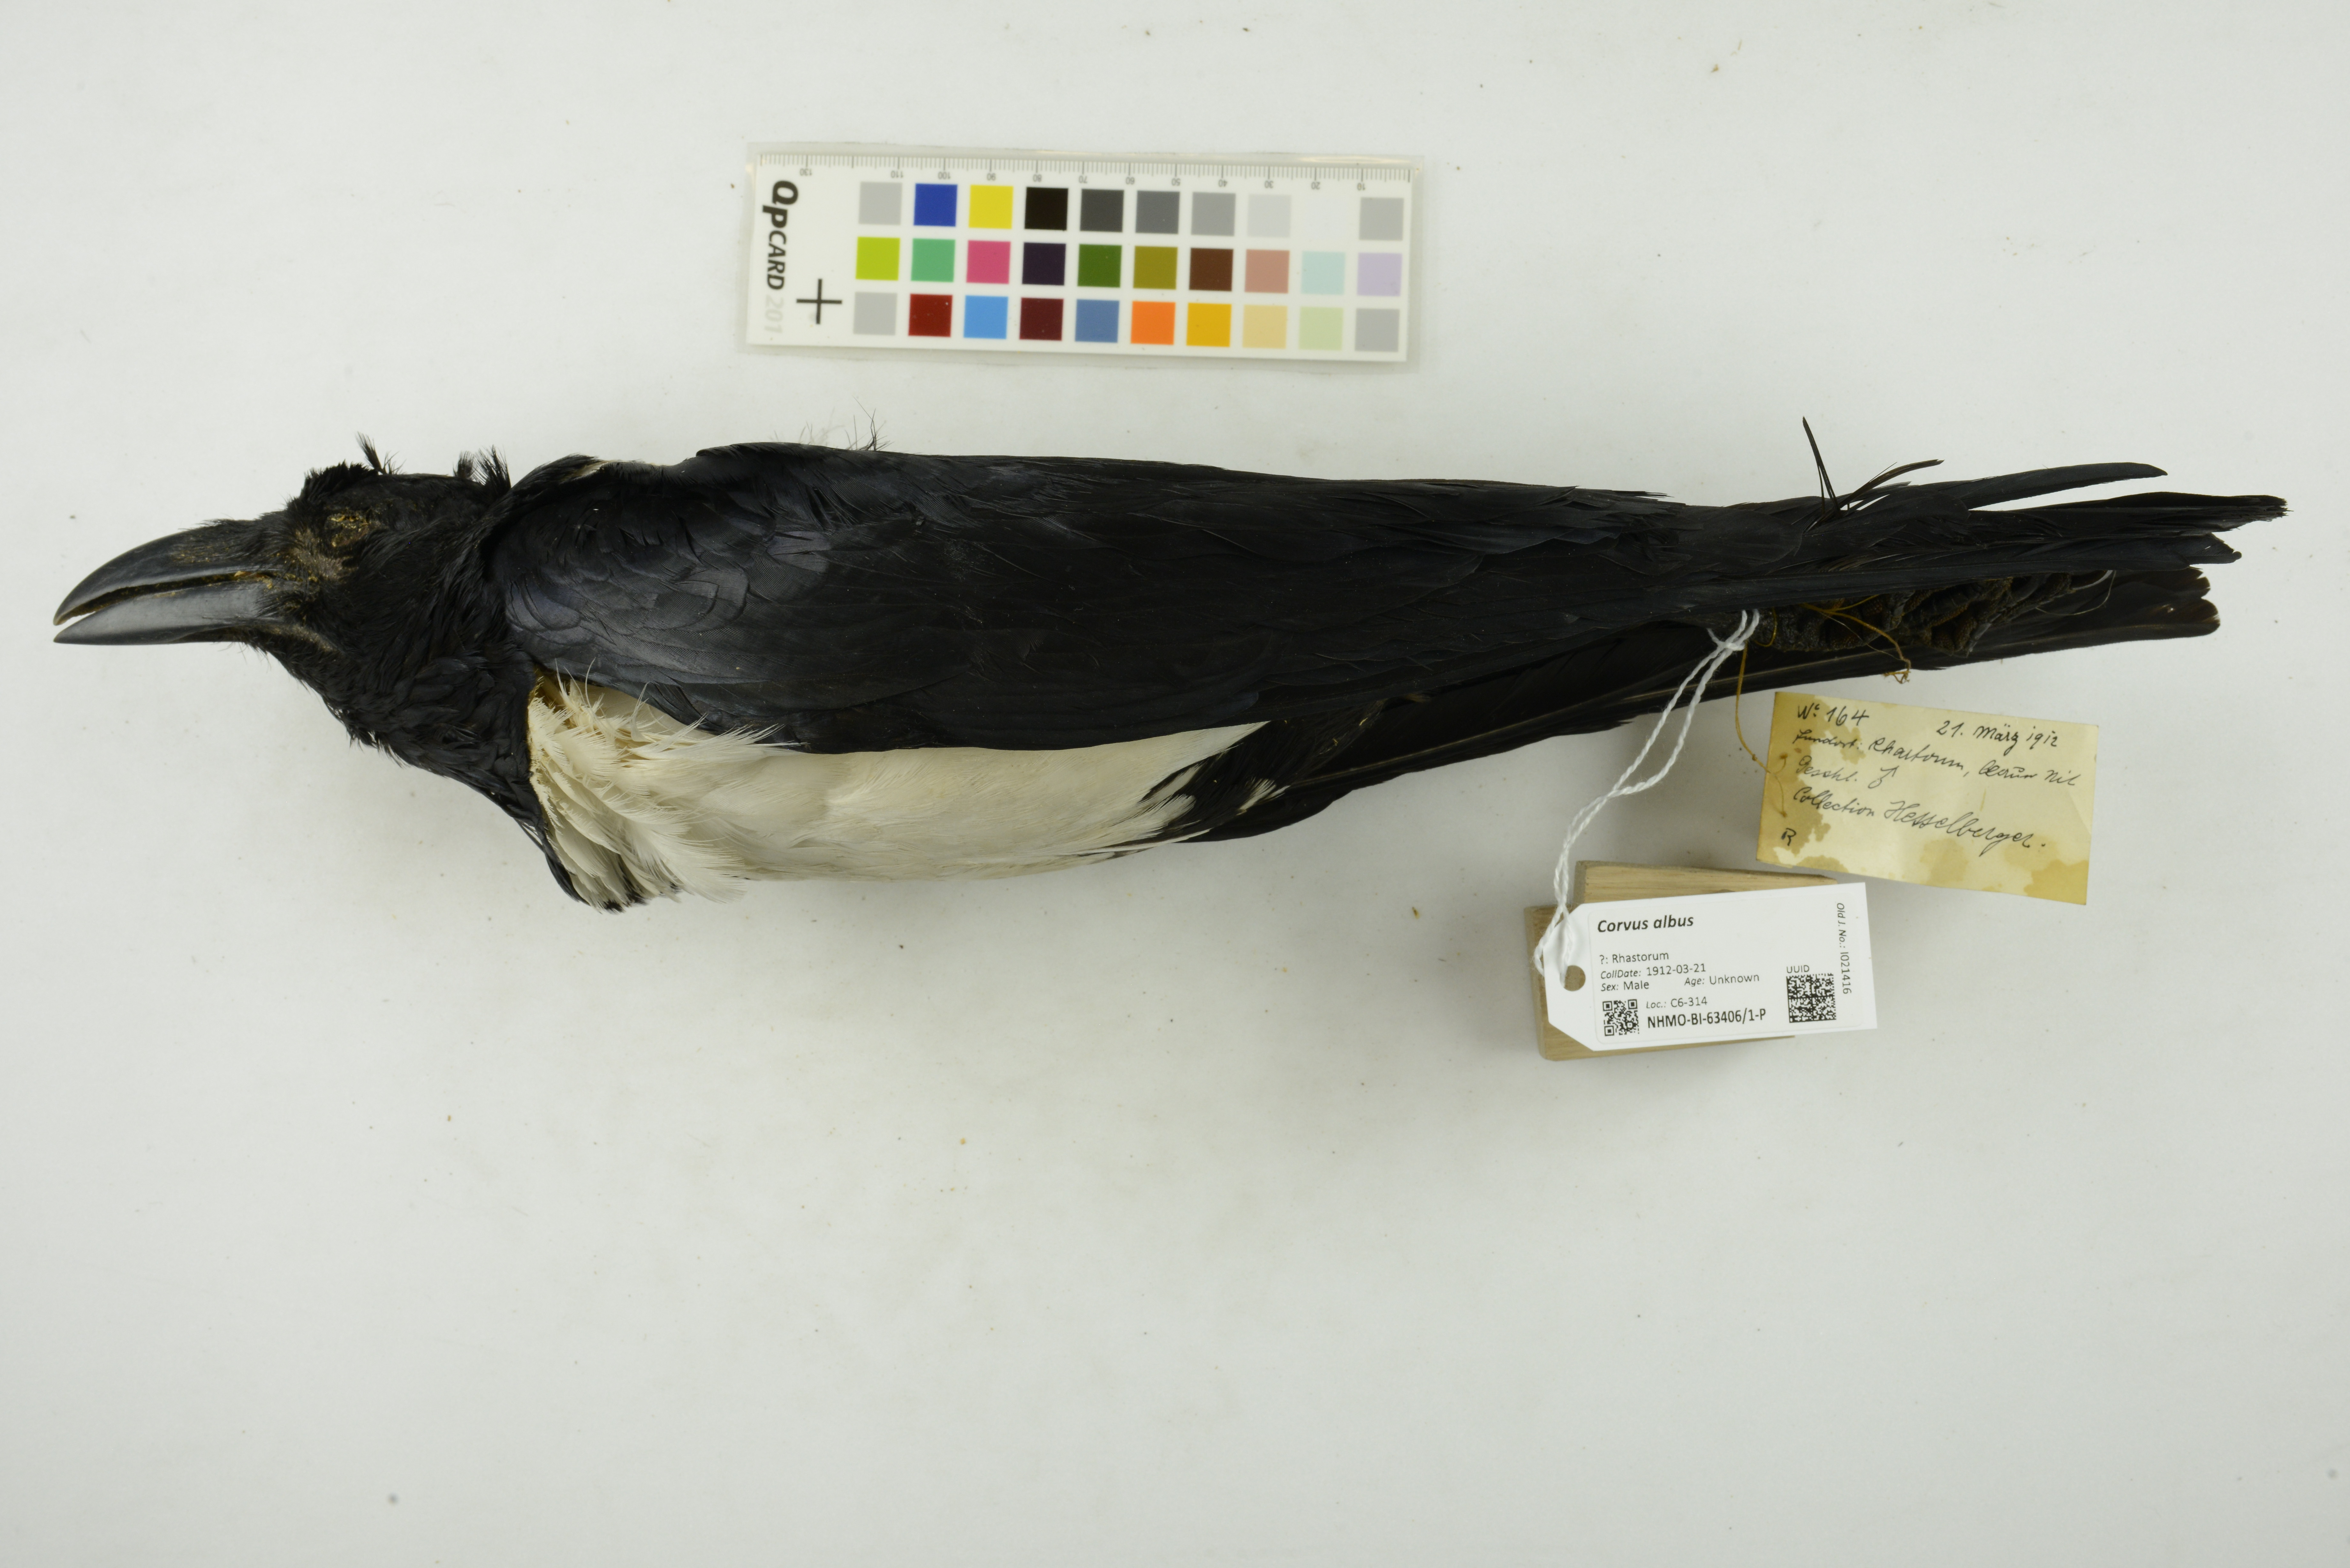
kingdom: Animalia
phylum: Chordata
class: Aves
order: Passeriformes
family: Corvidae
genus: Corvus
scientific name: Corvus albus
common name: Pied crow
